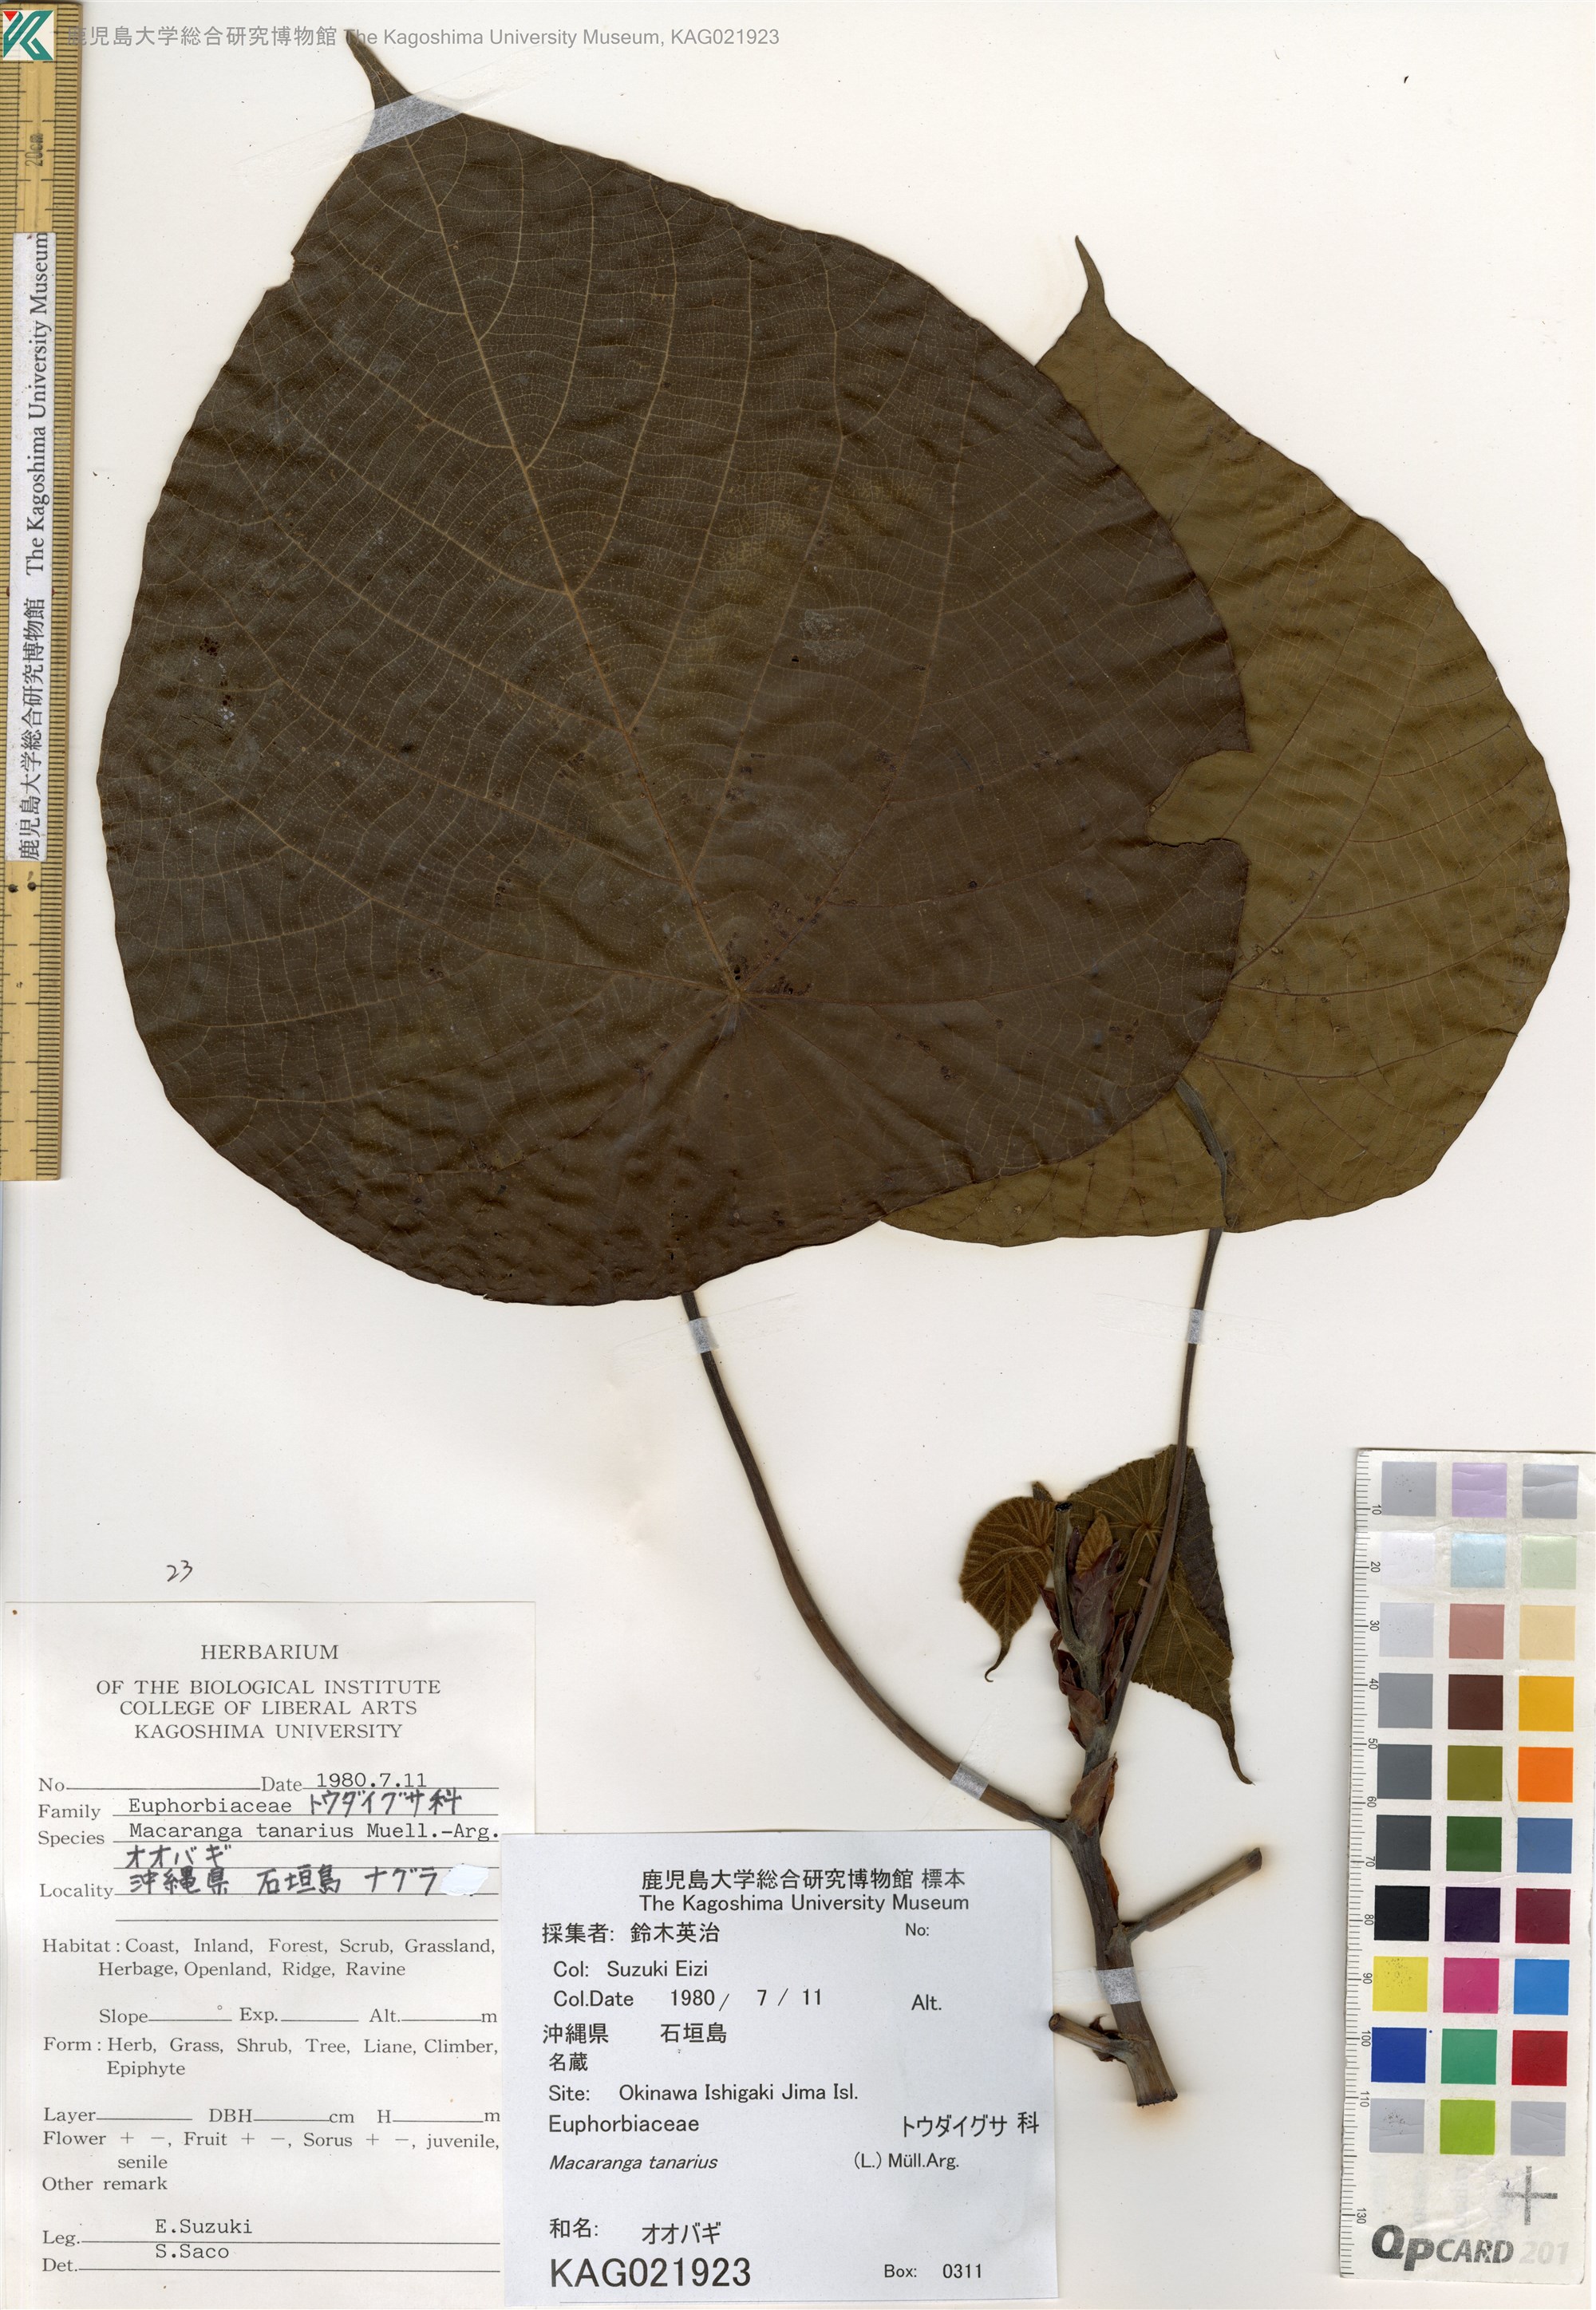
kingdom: Plantae
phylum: Tracheophyta
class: Magnoliopsida
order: Malpighiales
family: Euphorbiaceae
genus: Macaranga
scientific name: Macaranga tanarius
